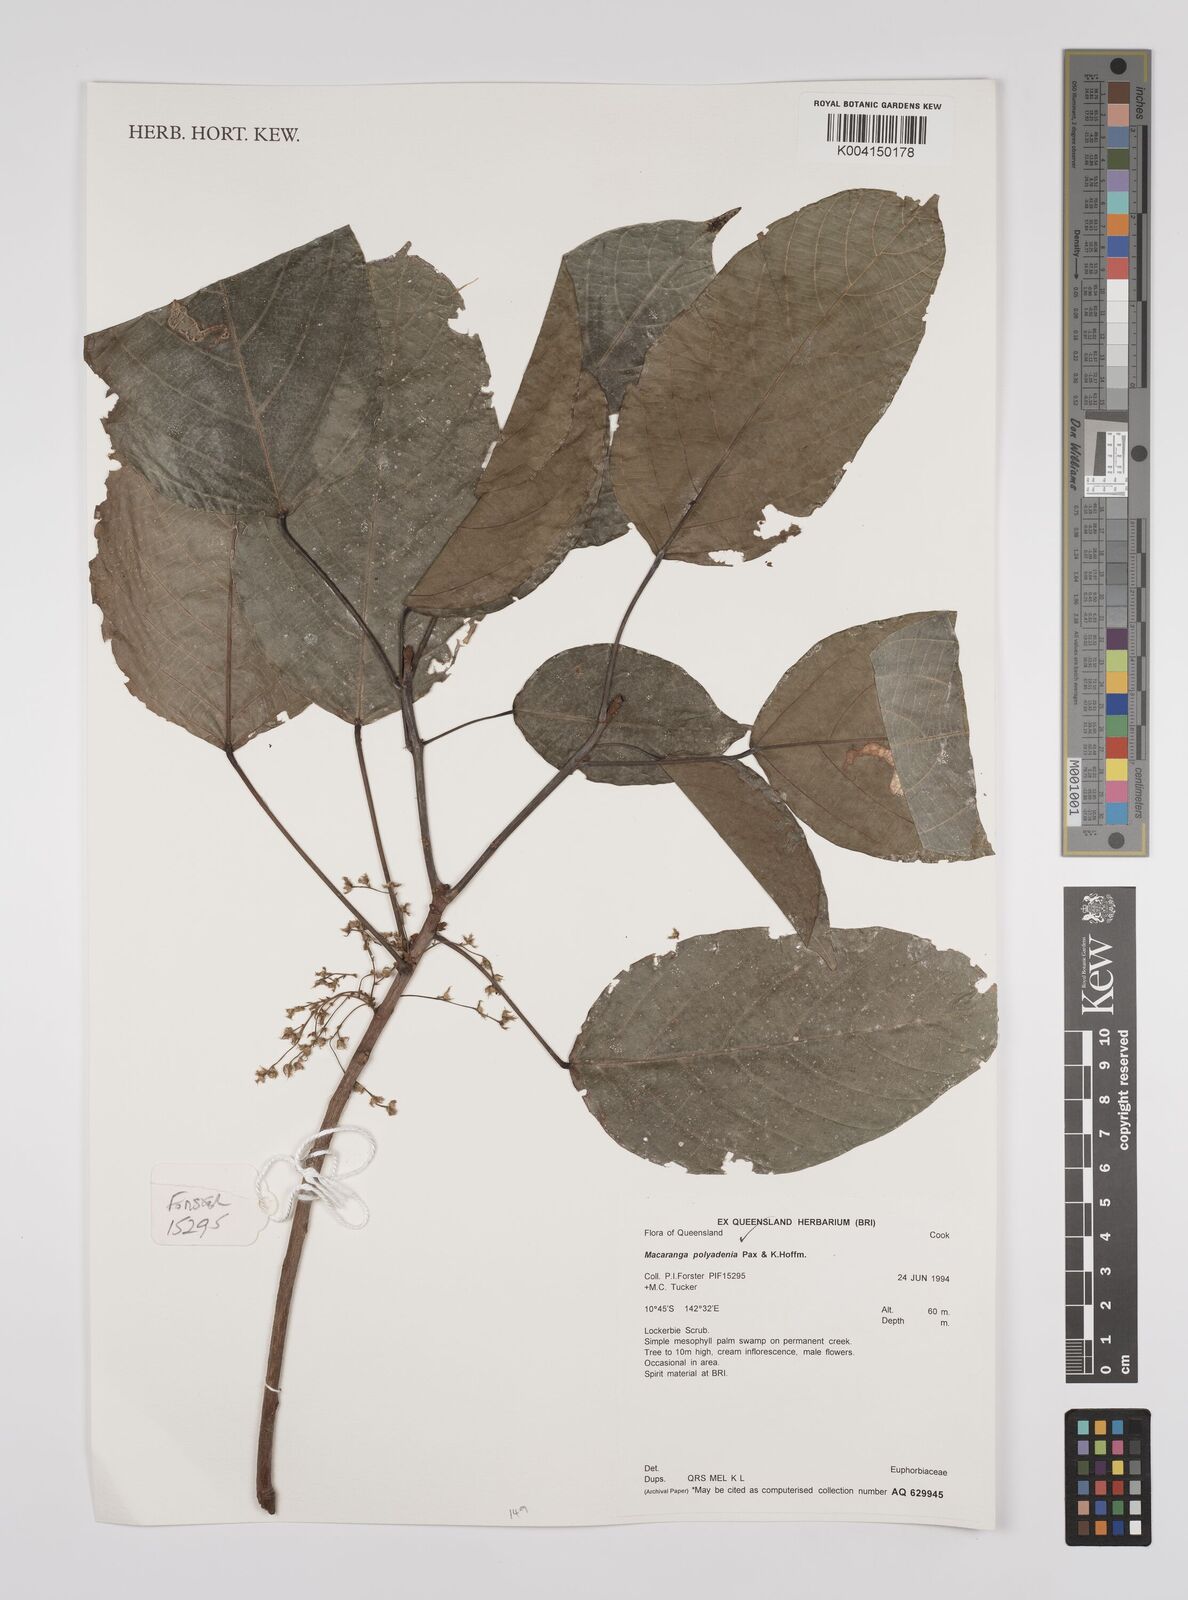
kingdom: Plantae
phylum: Tracheophyta
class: Magnoliopsida
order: Malpighiales
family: Euphorbiaceae
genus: Macaranga
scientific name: Macaranga polyadenia
